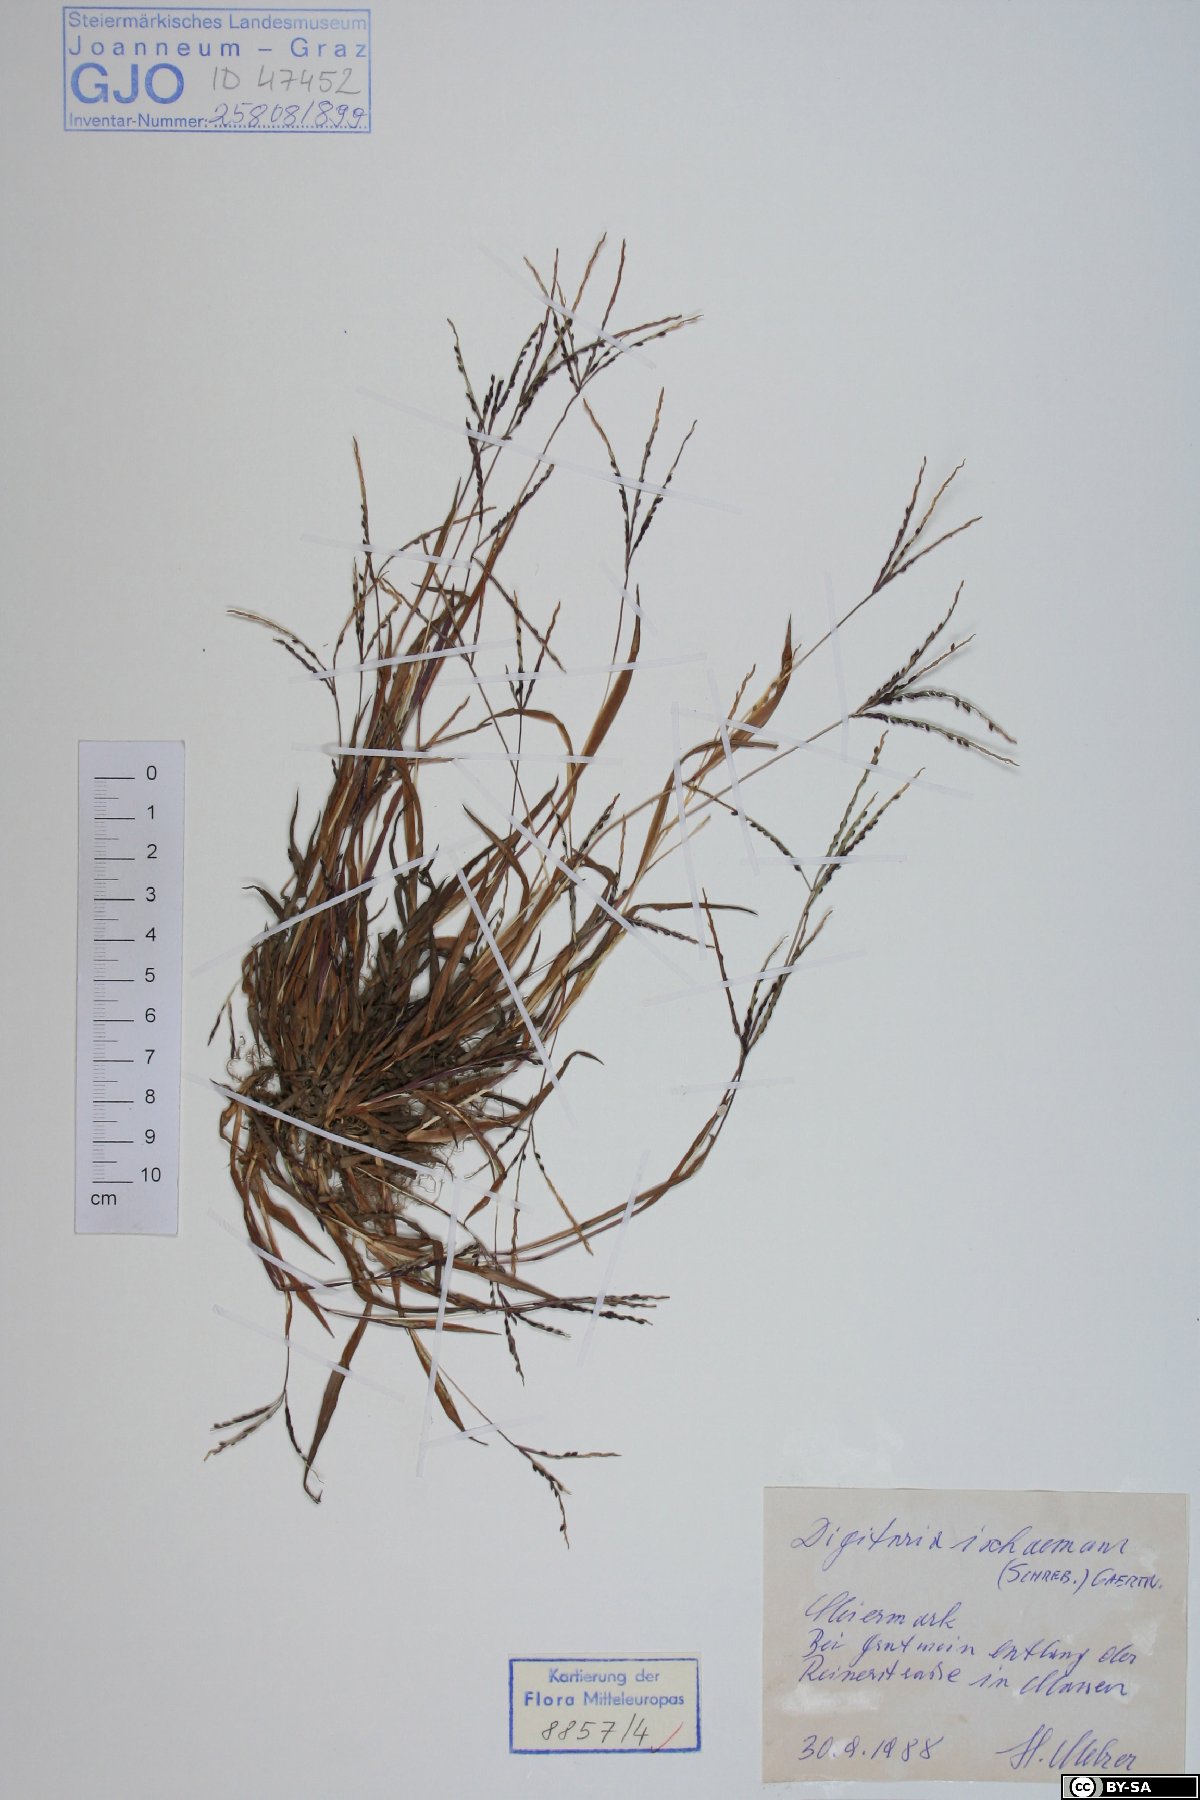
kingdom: Plantae
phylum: Tracheophyta
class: Liliopsida
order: Poales
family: Poaceae
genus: Digitaria
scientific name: Digitaria ischaemum
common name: Smooth crabgrass
